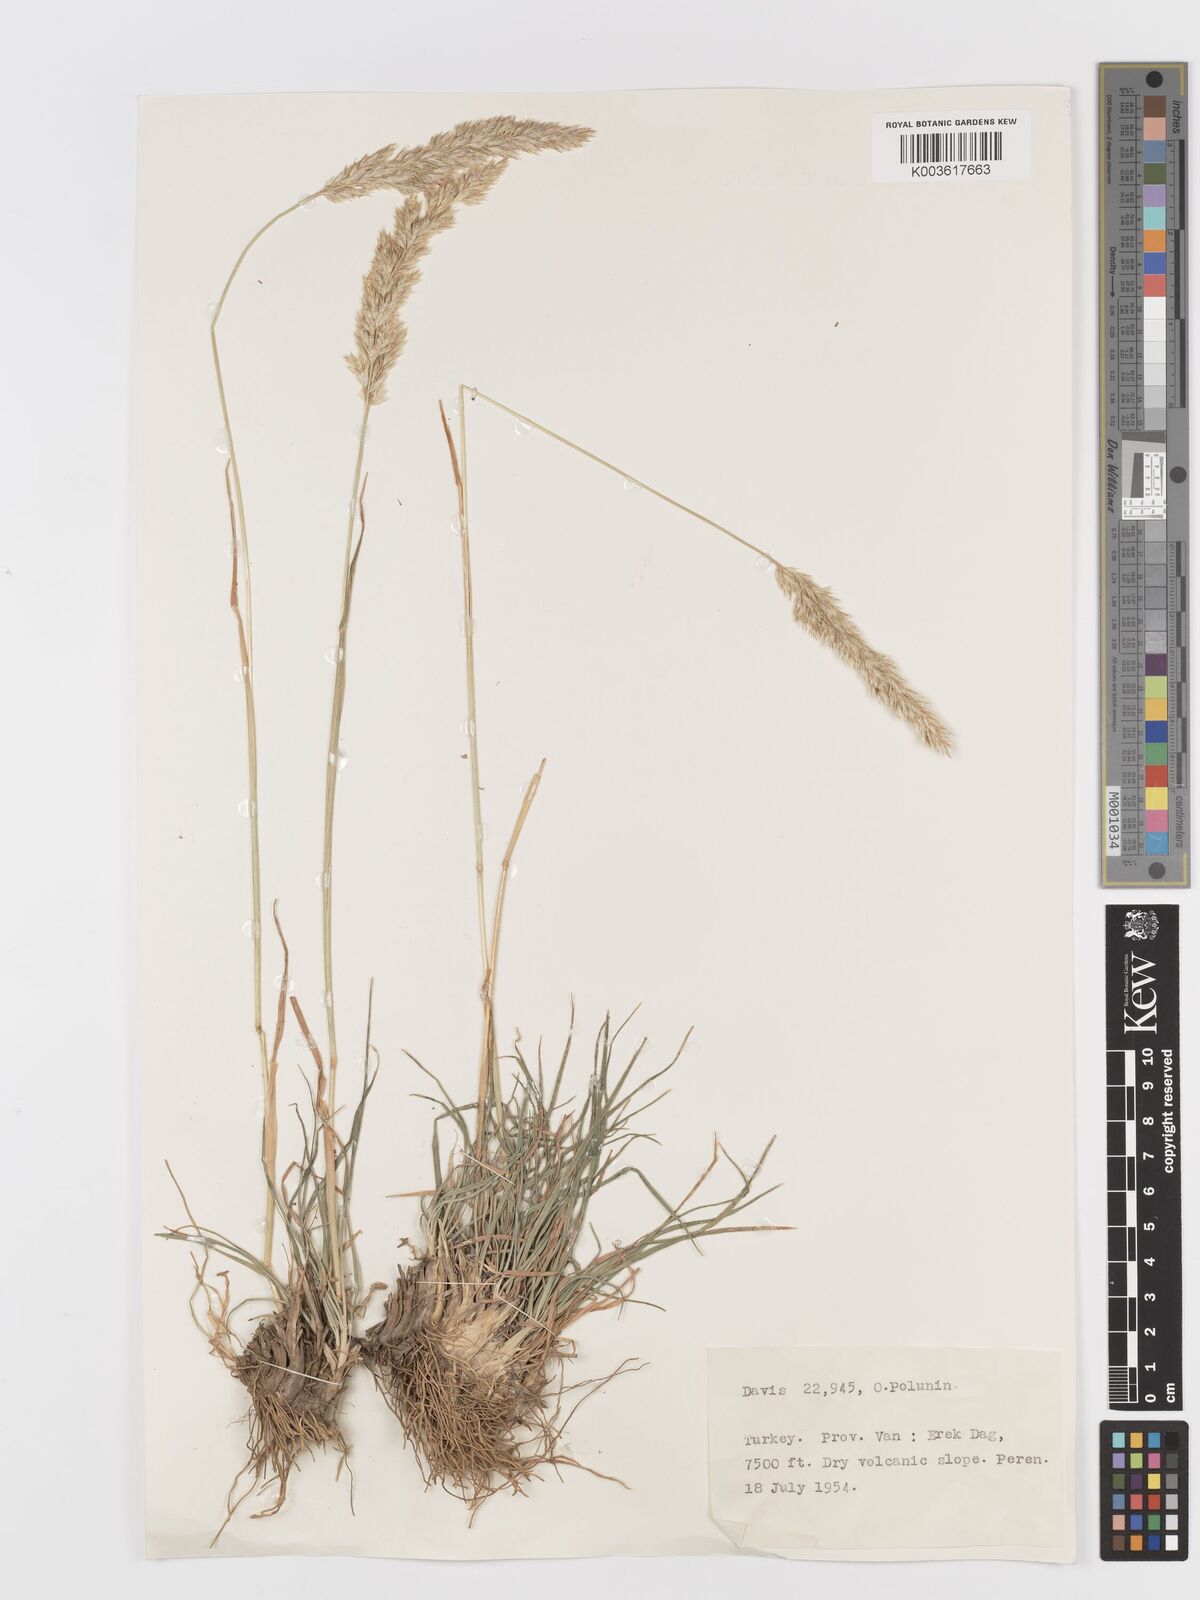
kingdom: Plantae
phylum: Tracheophyta
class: Liliopsida
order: Poales
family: Poaceae
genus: Koeleria
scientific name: Koeleria
